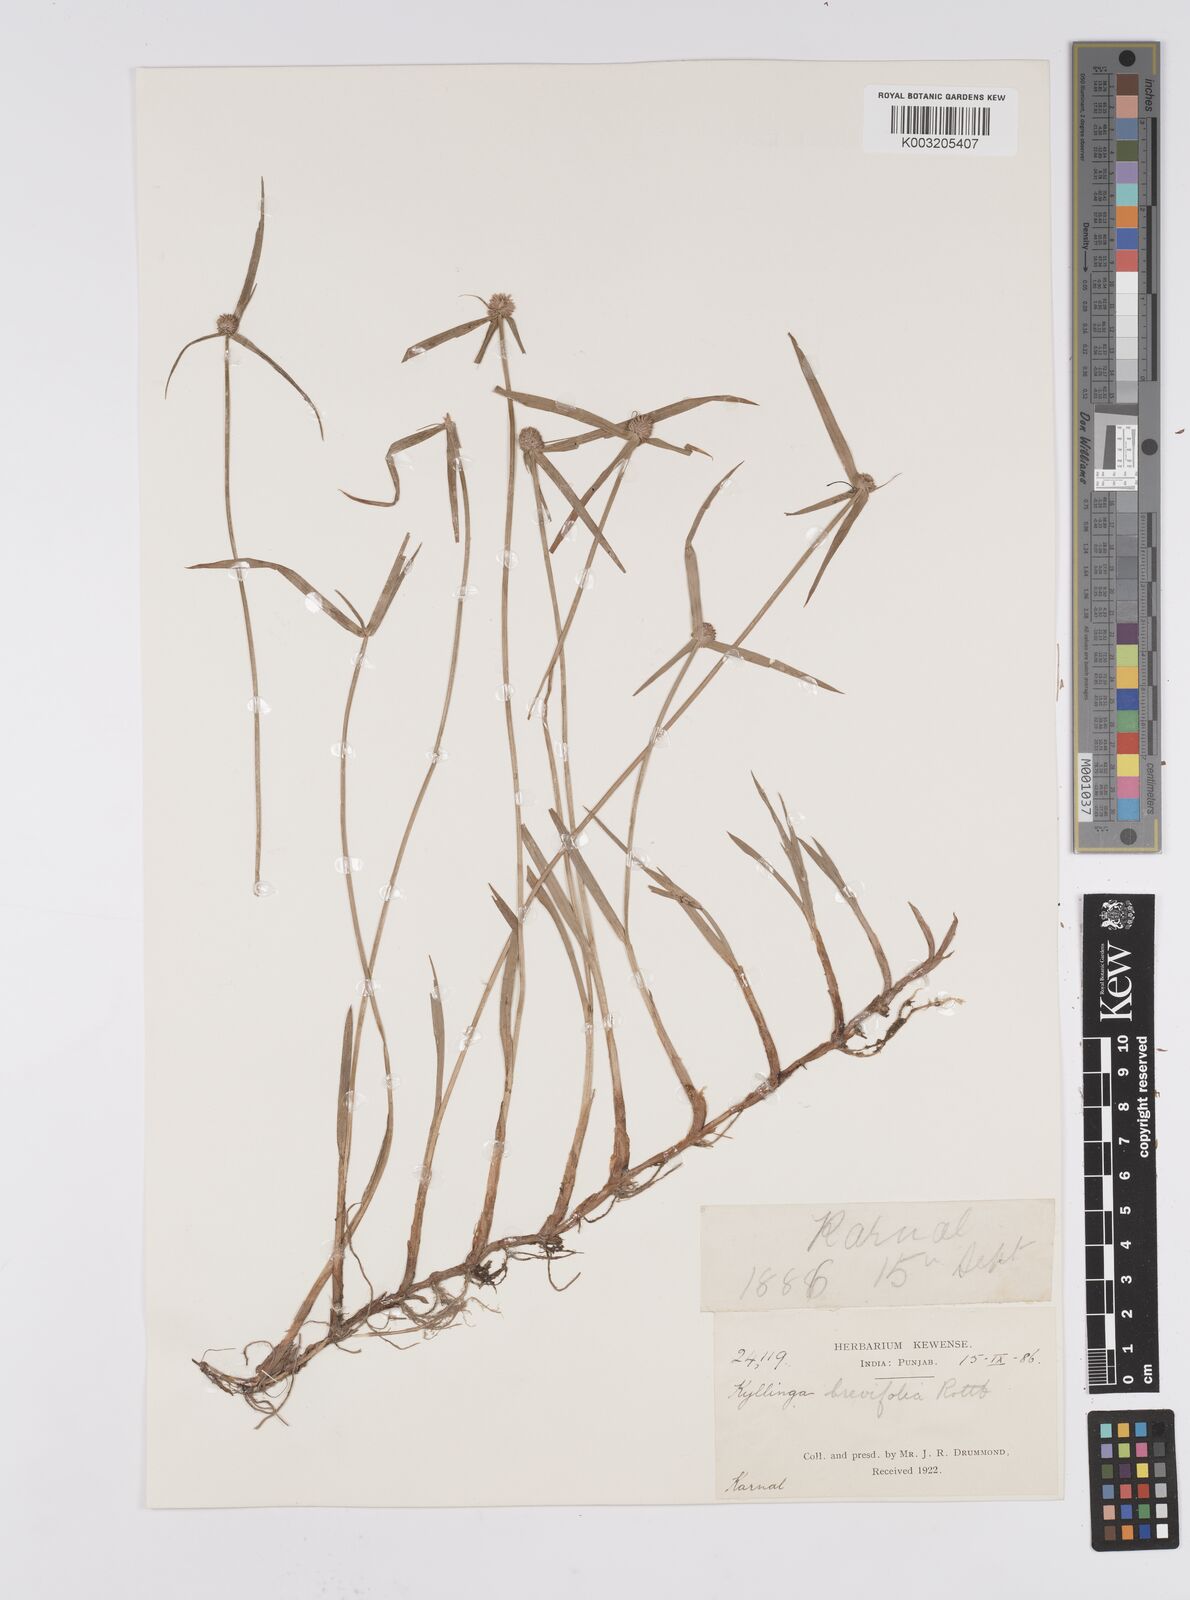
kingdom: Plantae
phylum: Tracheophyta
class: Liliopsida
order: Poales
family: Cyperaceae
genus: Cyperus
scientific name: Cyperus brevifolius
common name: Globe kyllinga
